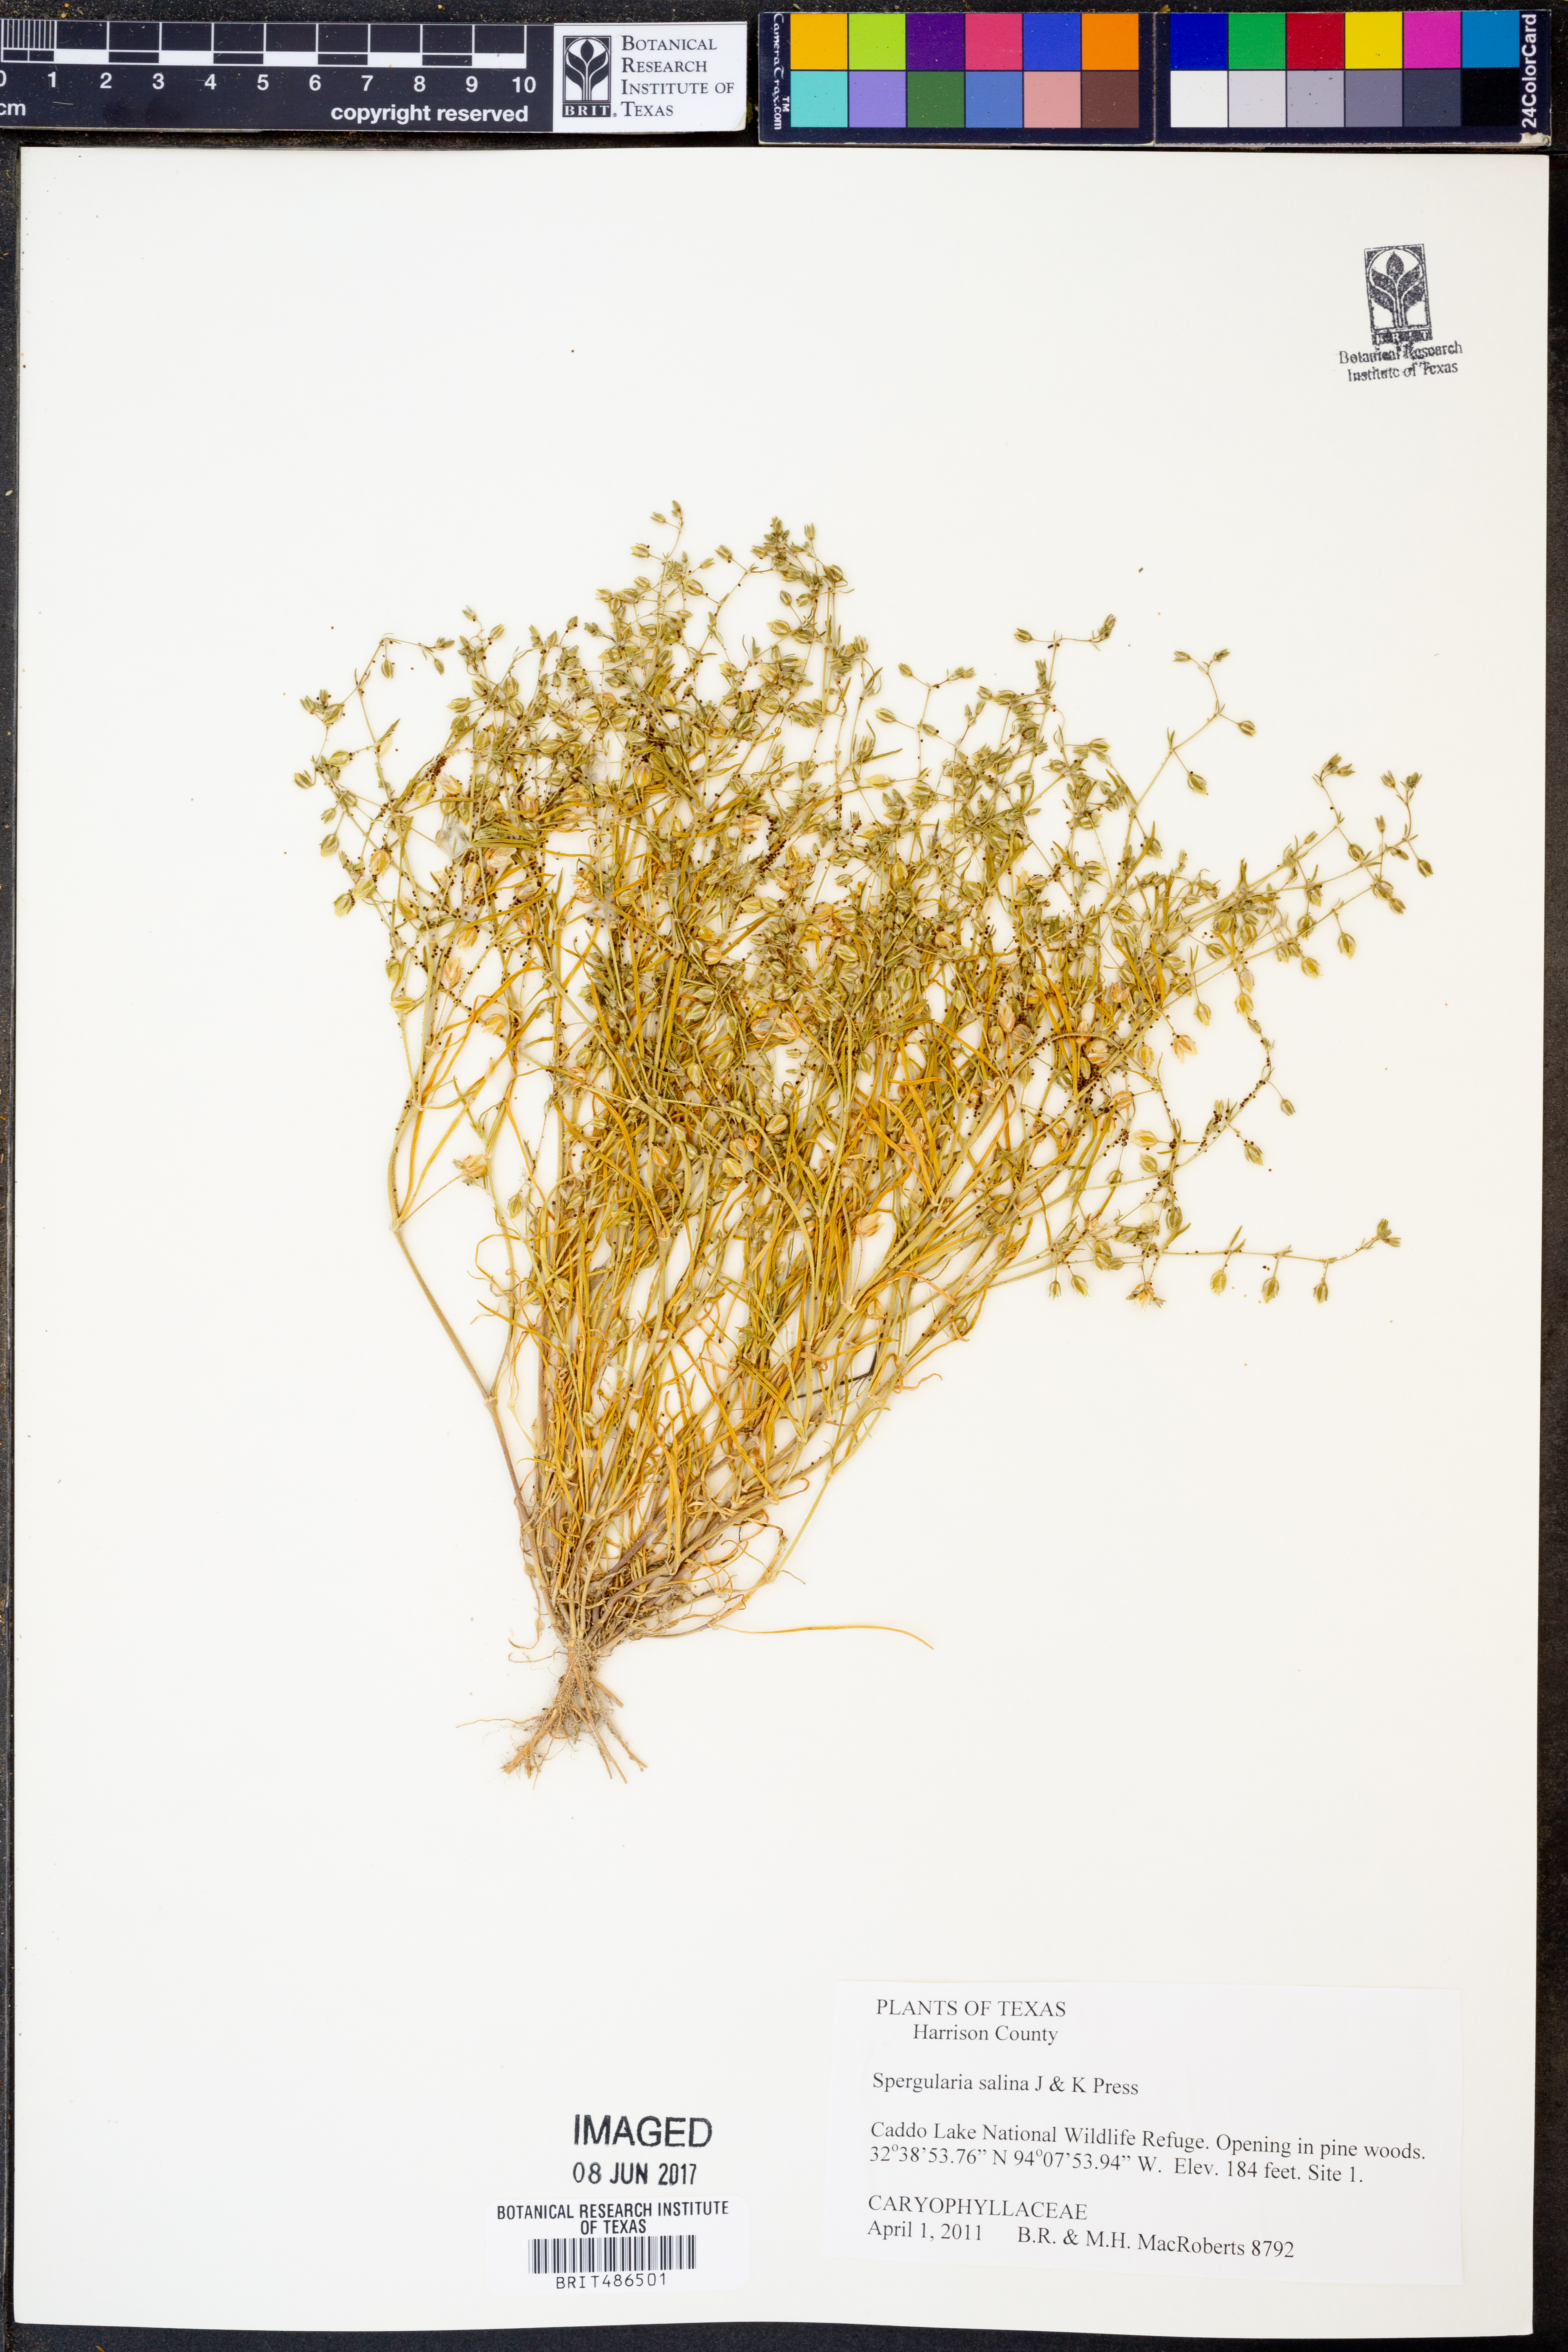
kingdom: Plantae
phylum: Tracheophyta
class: Magnoliopsida
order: Caryophyllales
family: Caryophyllaceae
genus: Spergularia
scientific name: Spergularia marina
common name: Lesser sea-spurrey
